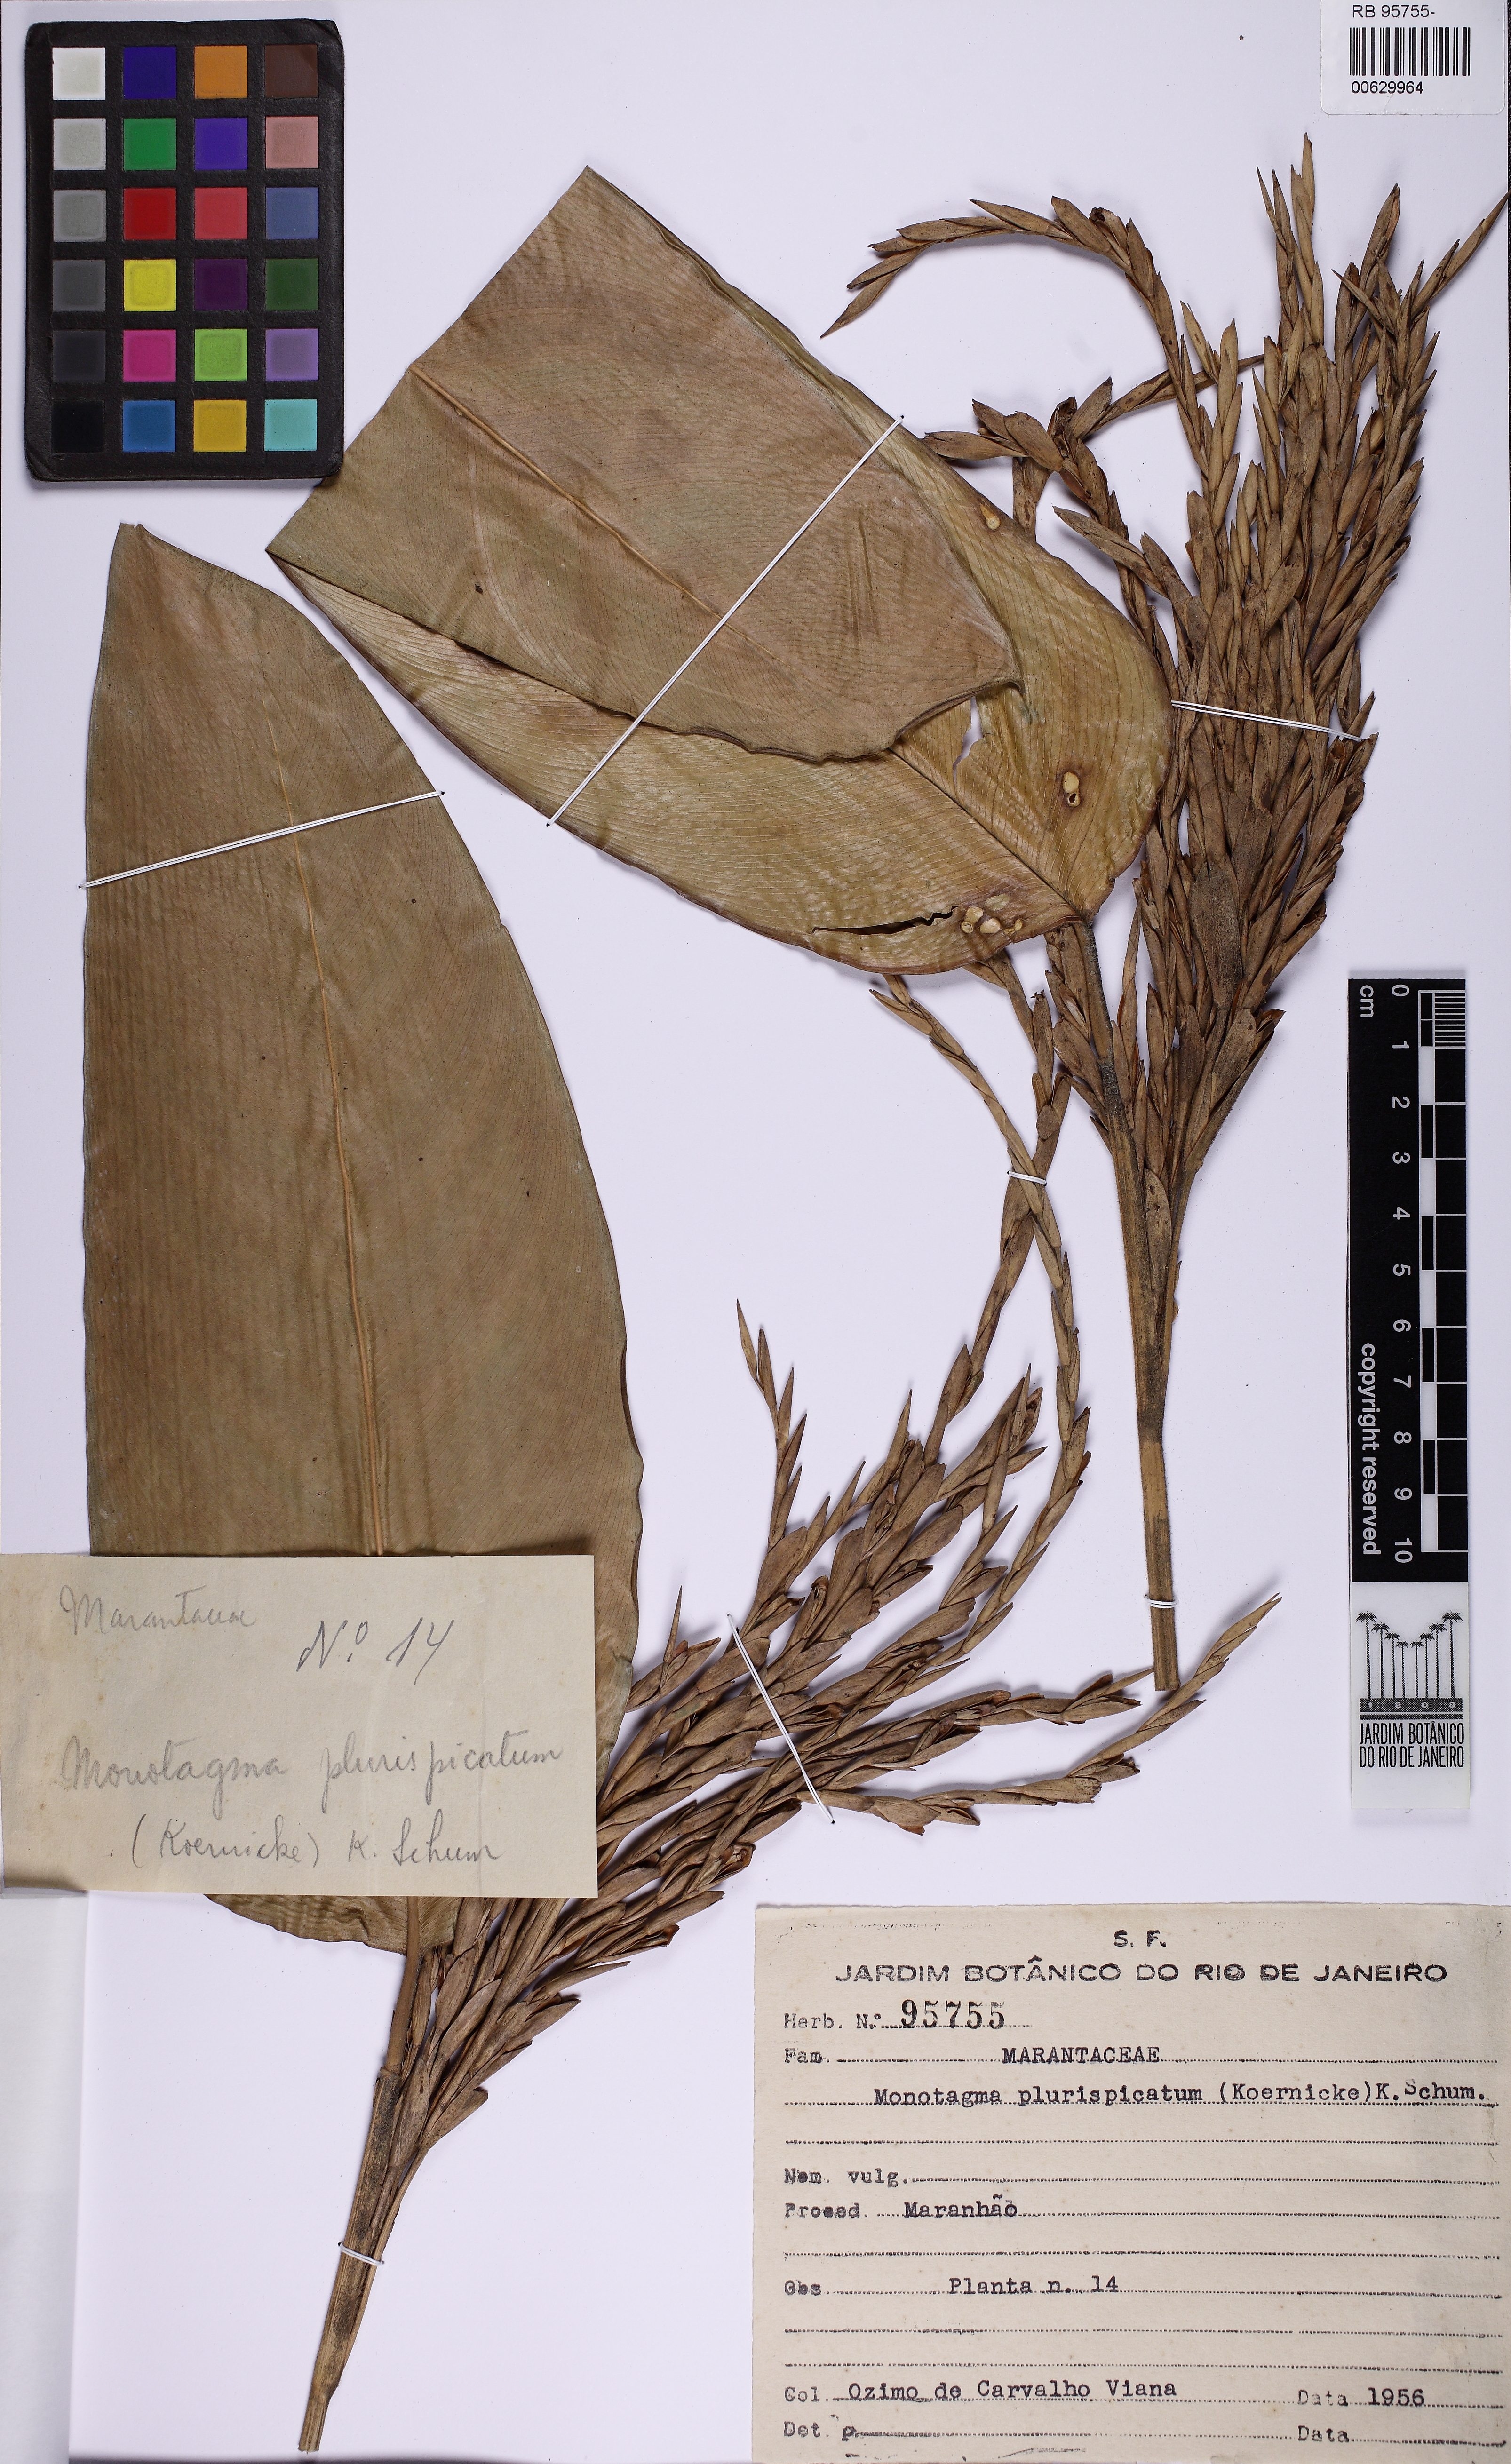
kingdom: Plantae
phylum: Tracheophyta
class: Liliopsida
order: Zingiberales
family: Marantaceae
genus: Monotagma
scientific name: Monotagma plurispicatum
